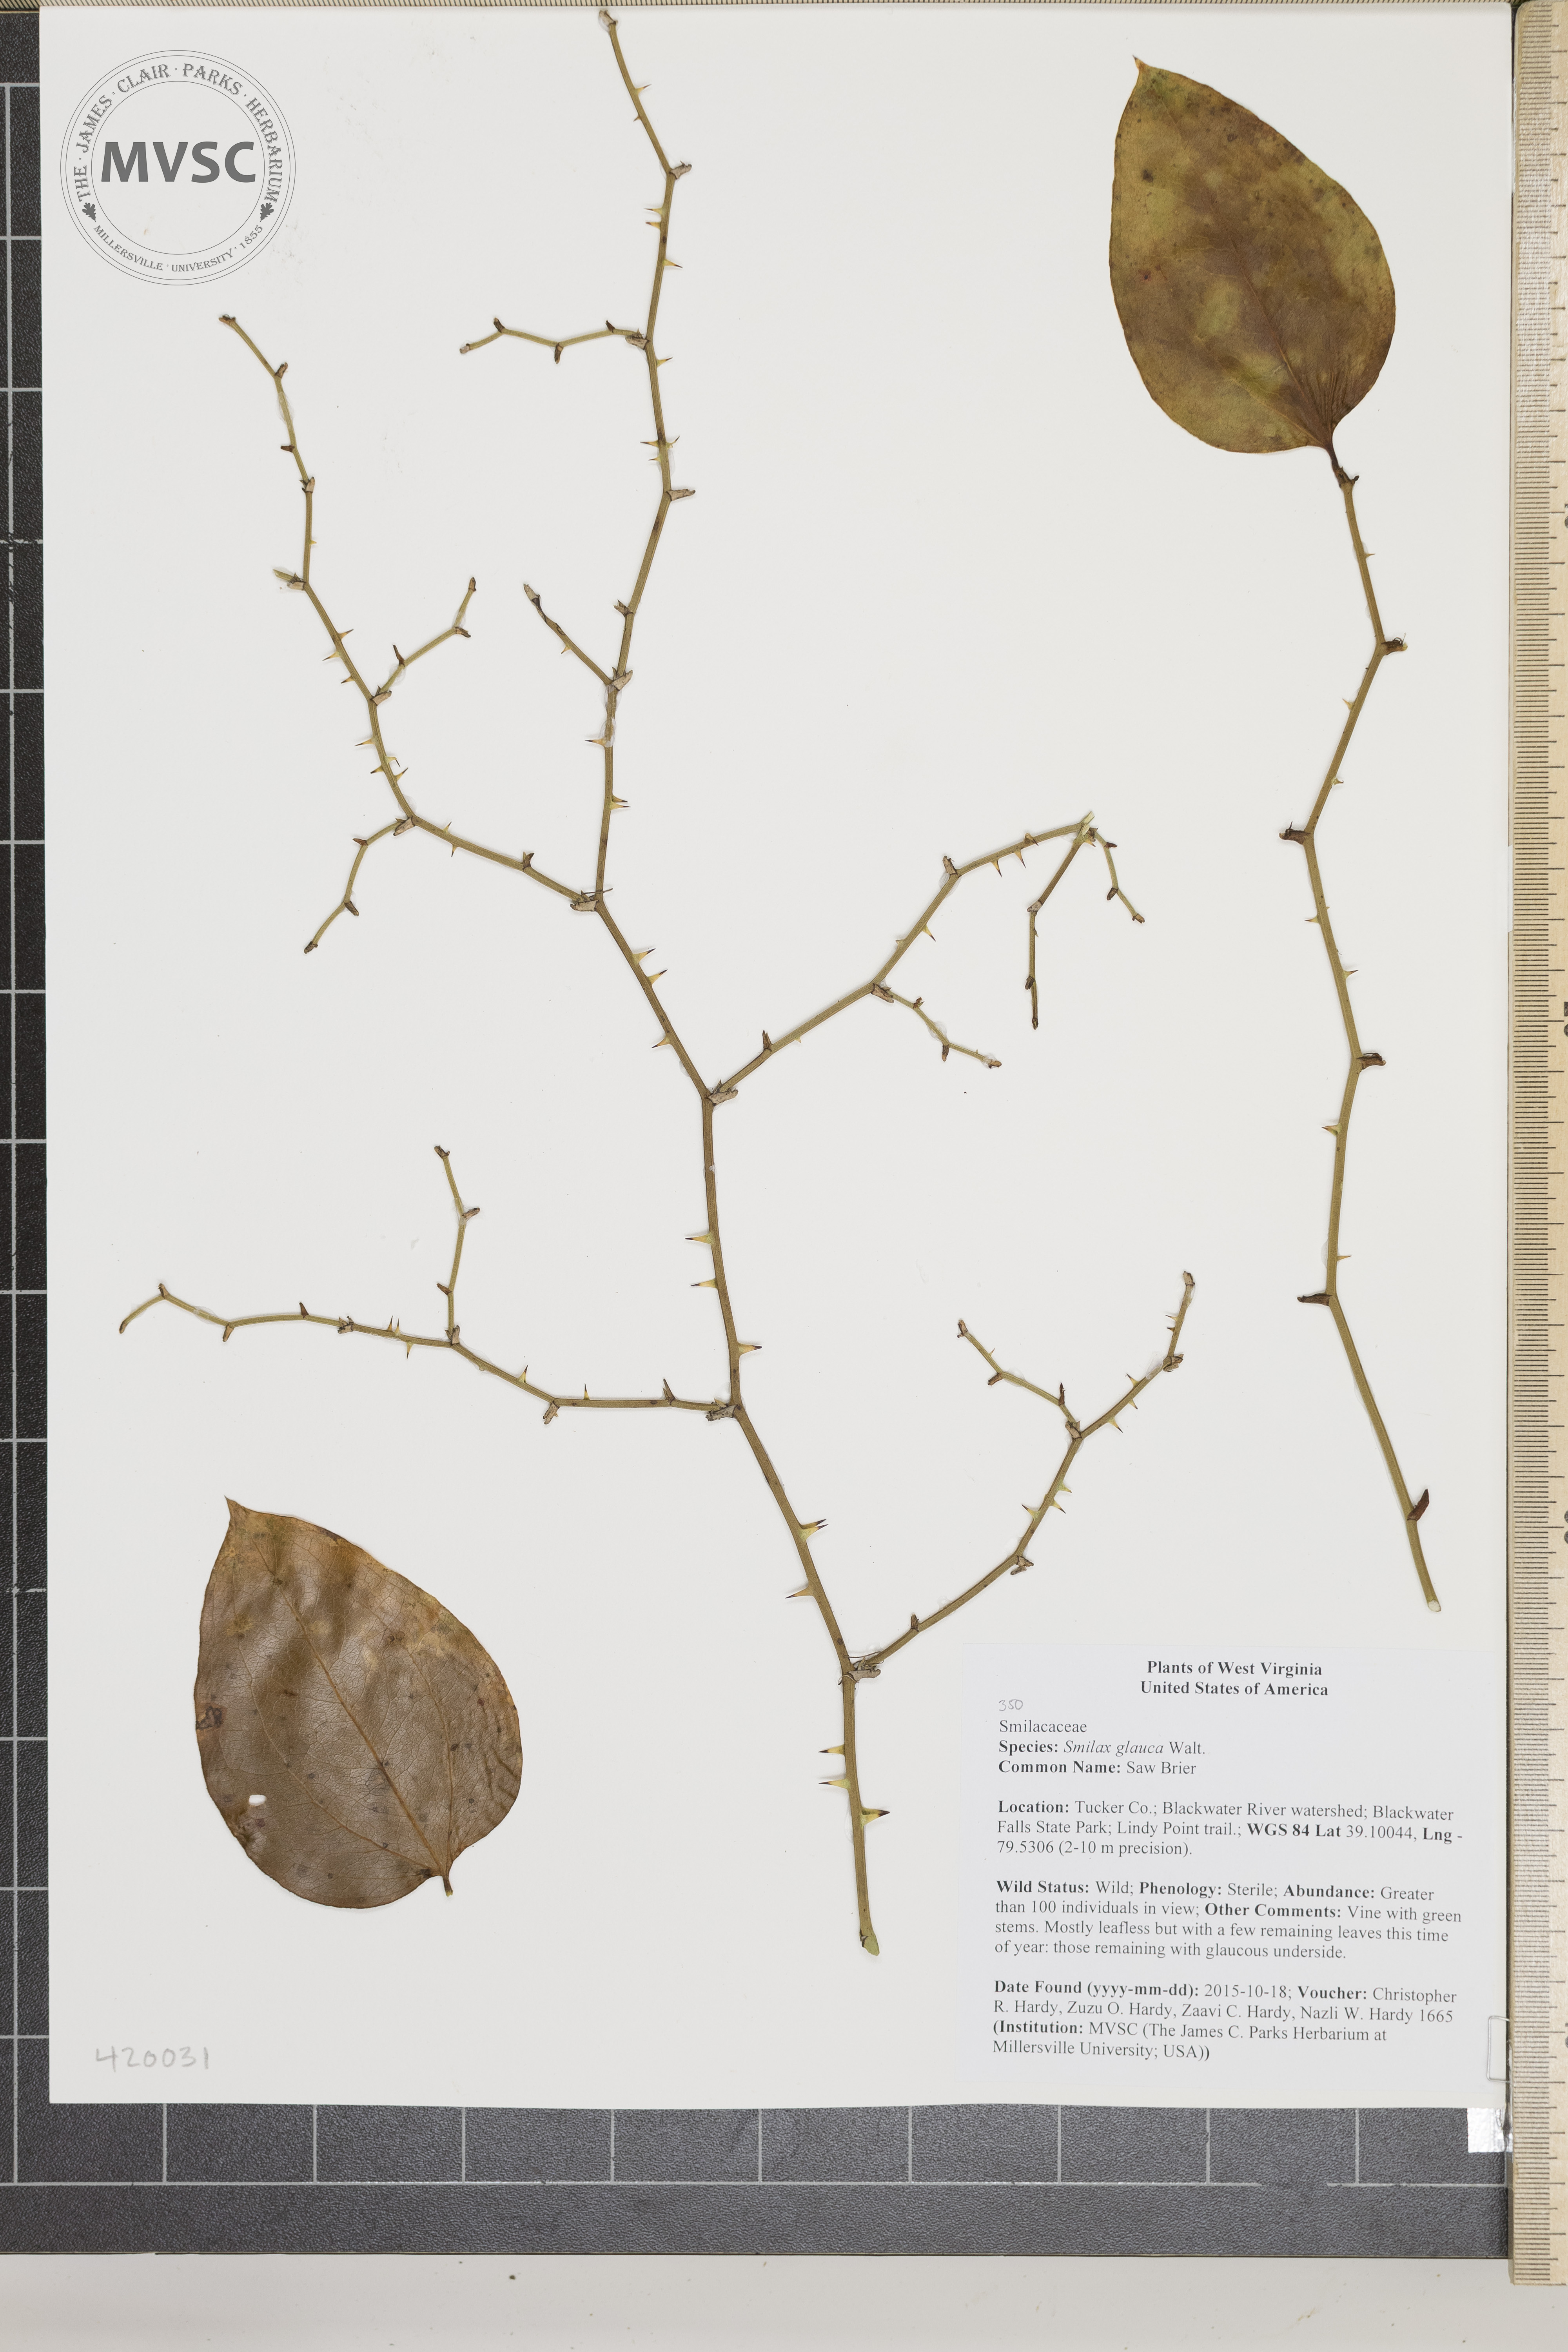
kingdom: Plantae
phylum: Tracheophyta
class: Liliopsida
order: Liliales
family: Smilacaceae
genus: Smilax
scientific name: Smilax glauca
